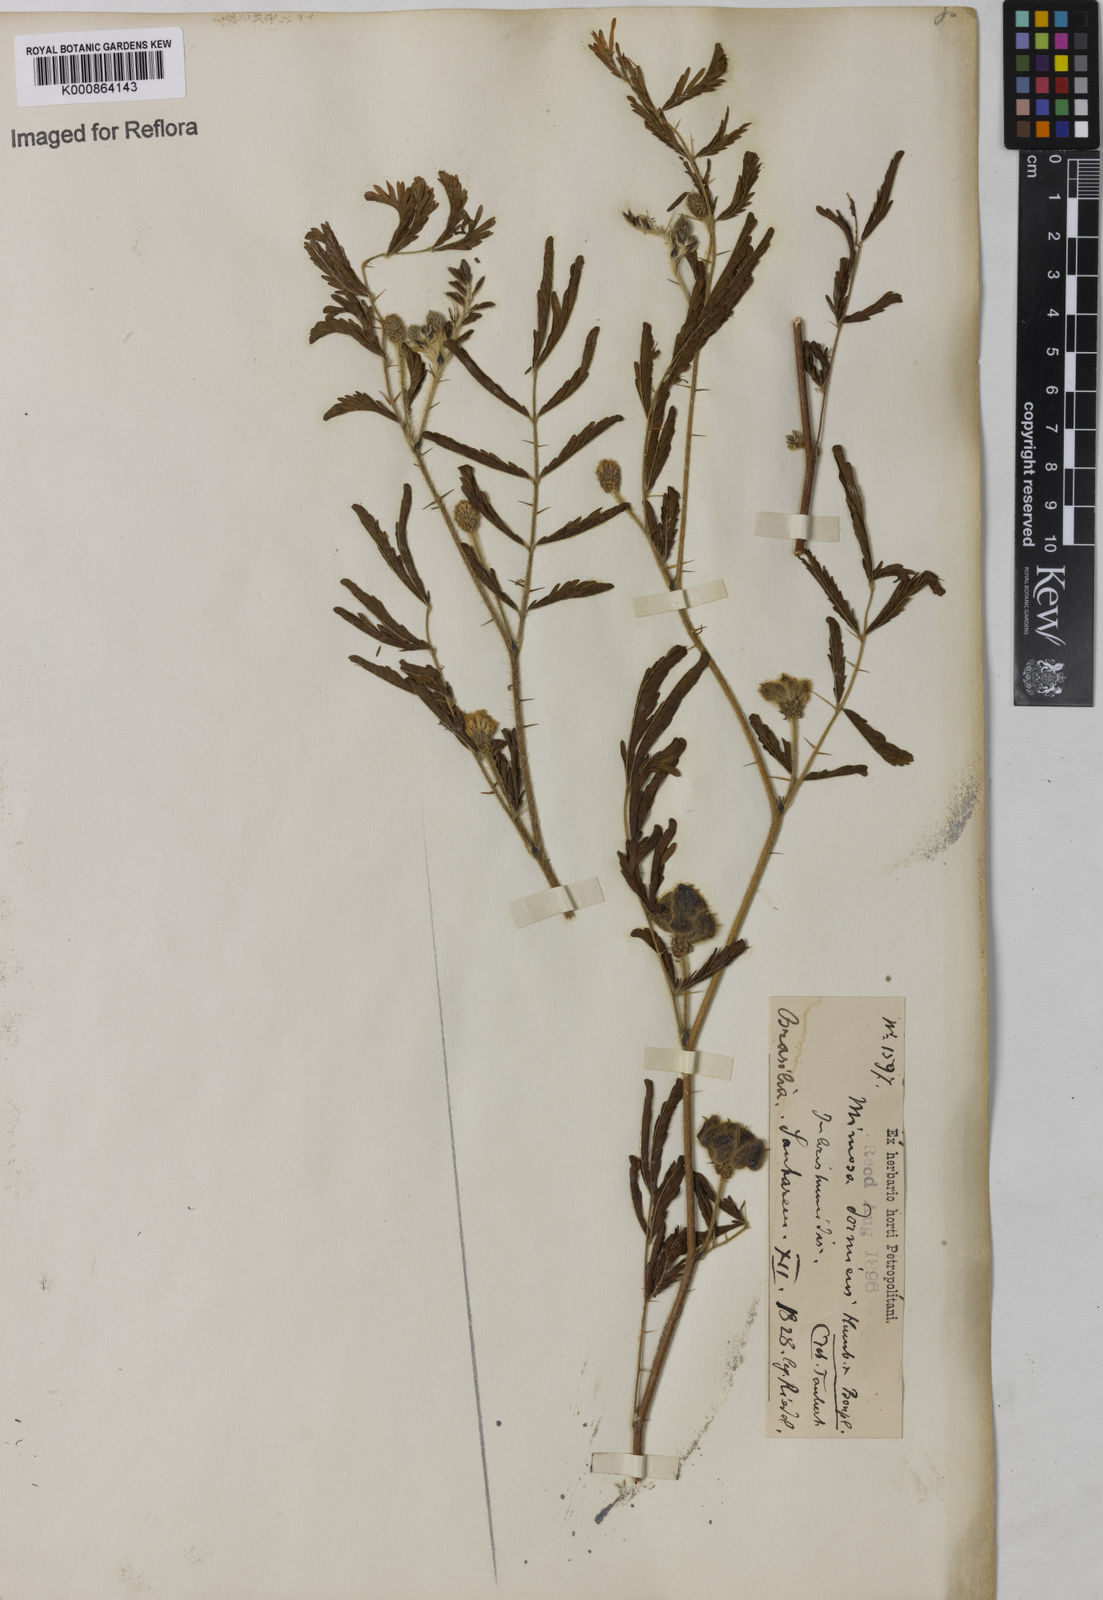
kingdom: Plantae
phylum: Tracheophyta
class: Magnoliopsida
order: Fabales
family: Fabaceae
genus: Mimosa
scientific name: Mimosa
